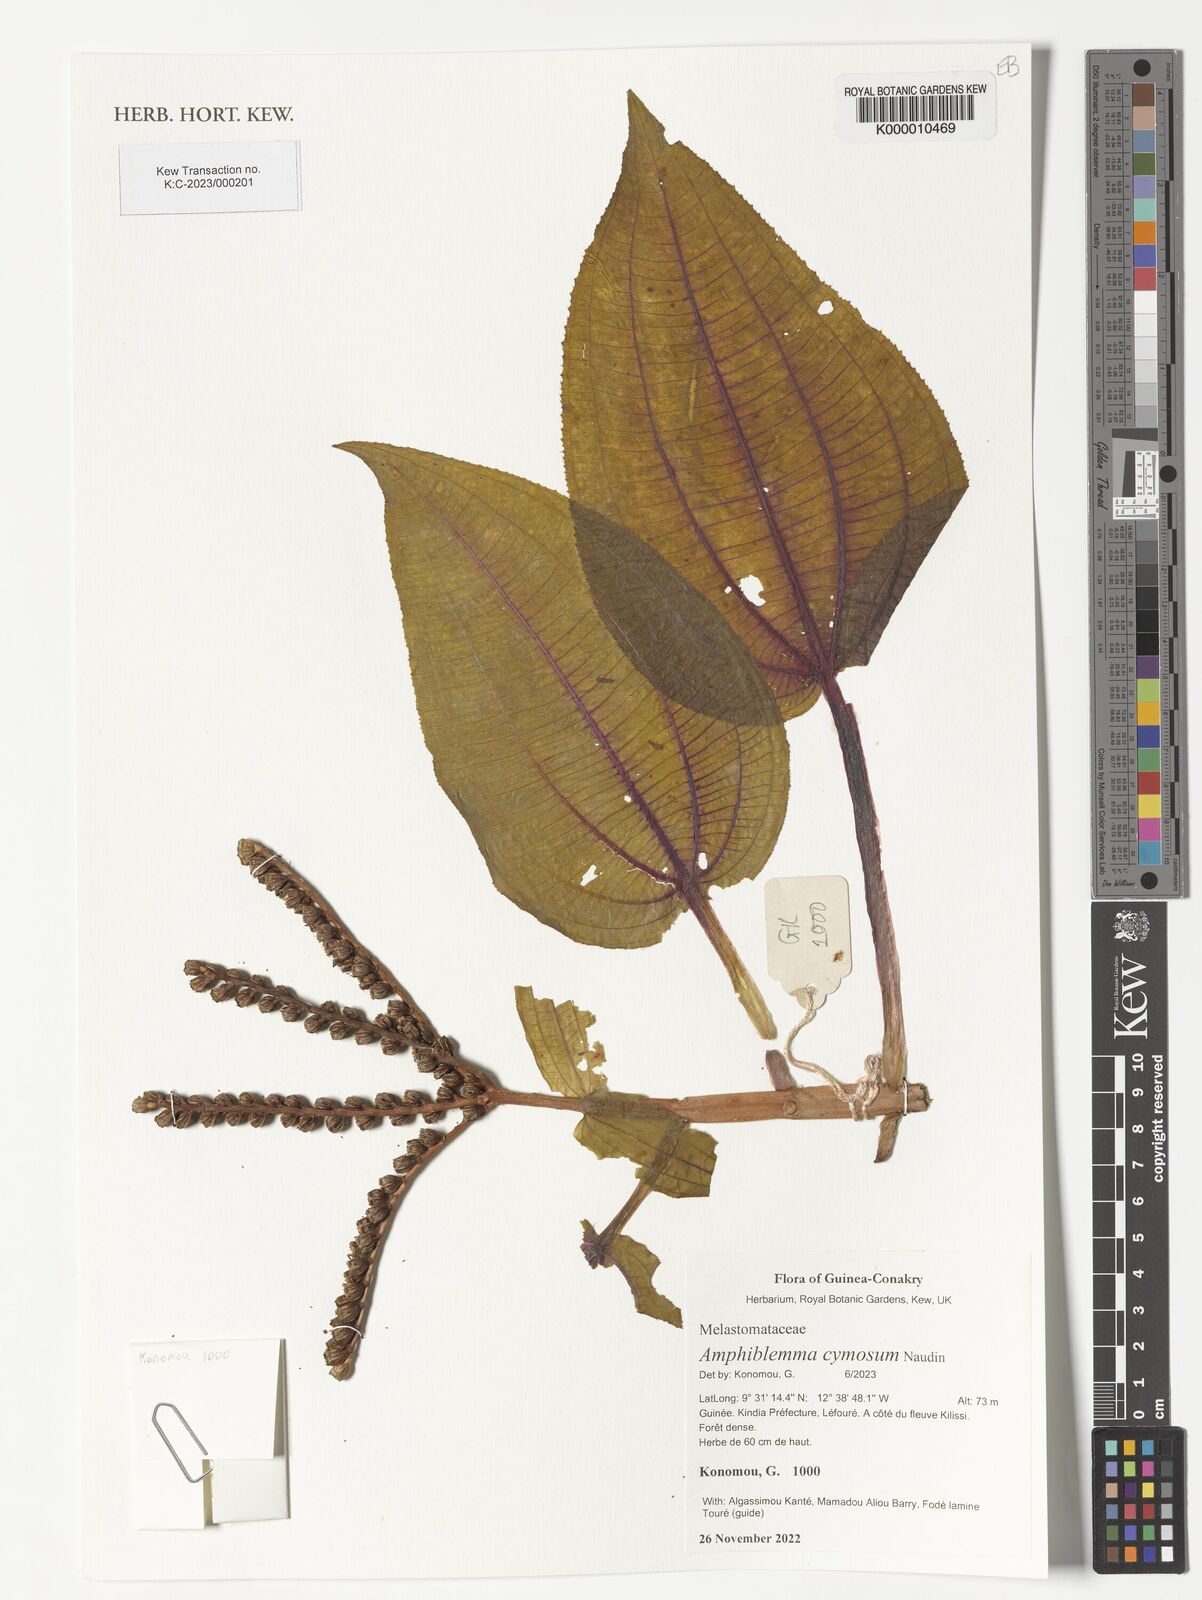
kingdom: Plantae
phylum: Tracheophyta
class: Magnoliopsida
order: Myrtales
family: Melastomataceae
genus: Amphiblemma
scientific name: Amphiblemma cymosum
